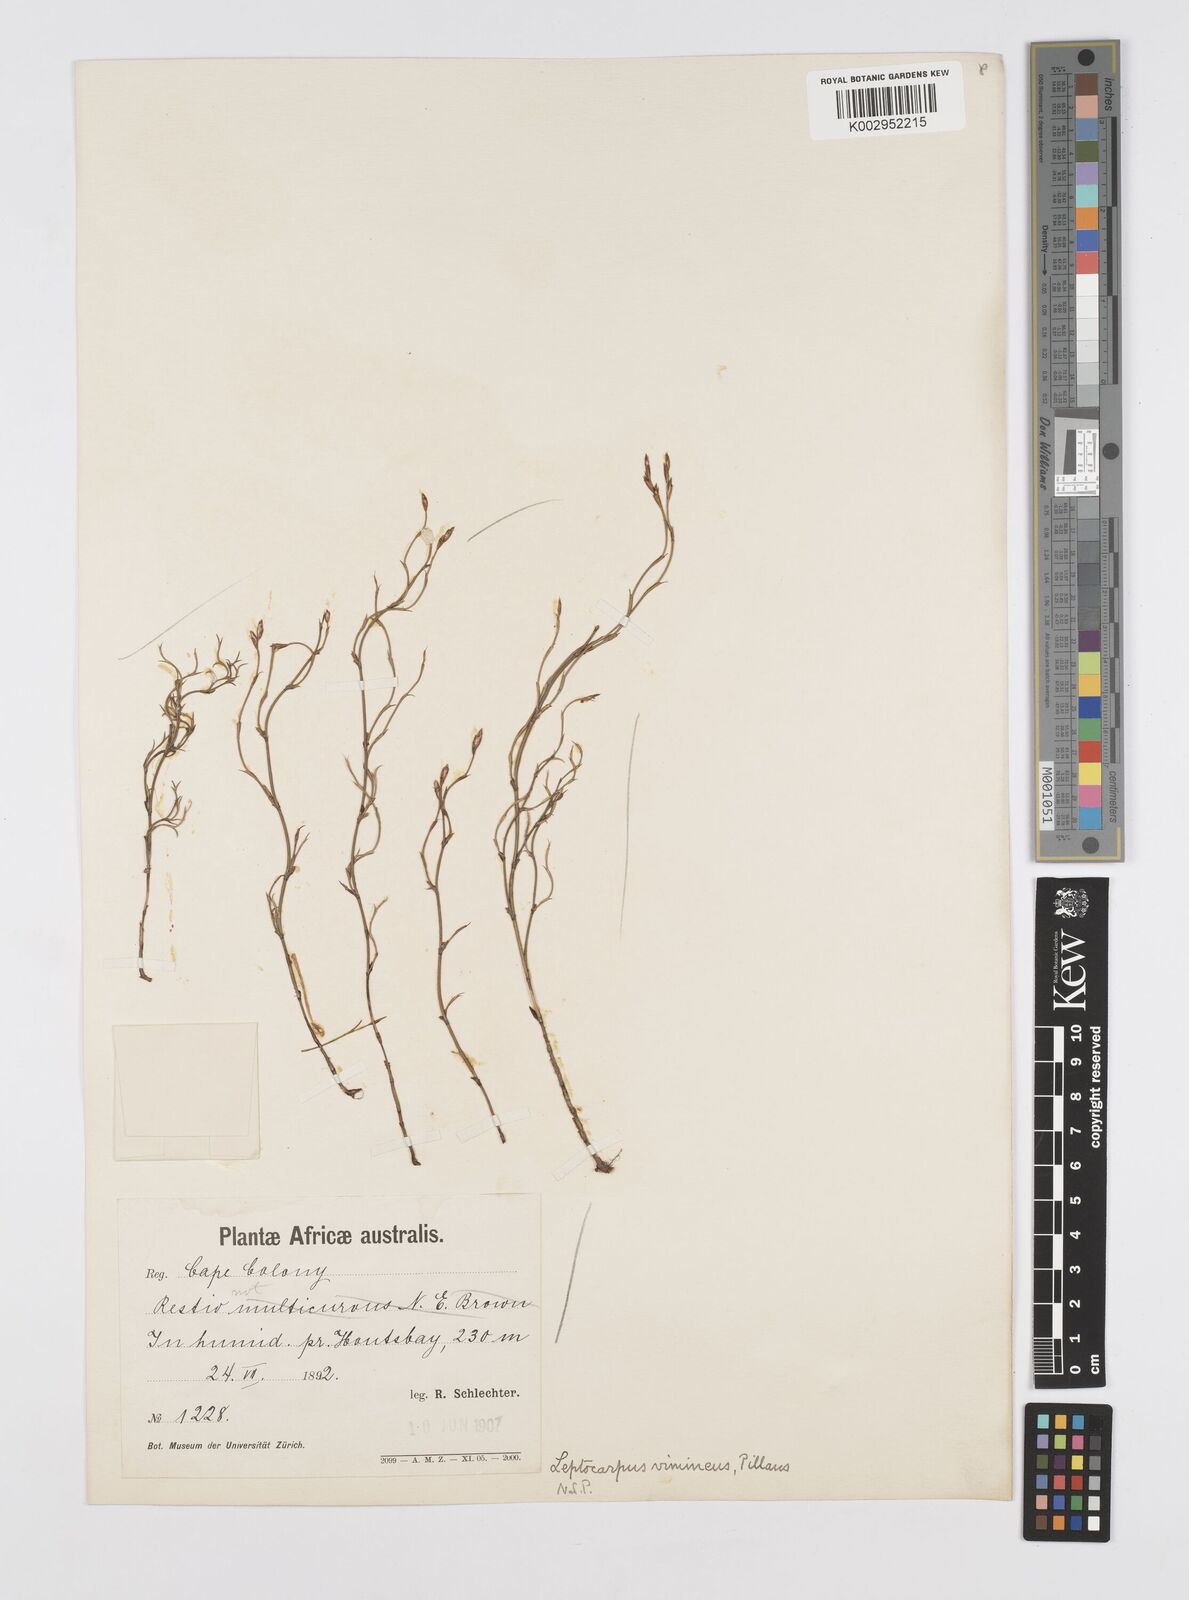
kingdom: Plantae
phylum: Tracheophyta
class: Liliopsida
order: Poales
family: Restionaceae
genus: Restio
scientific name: Restio vimineus
